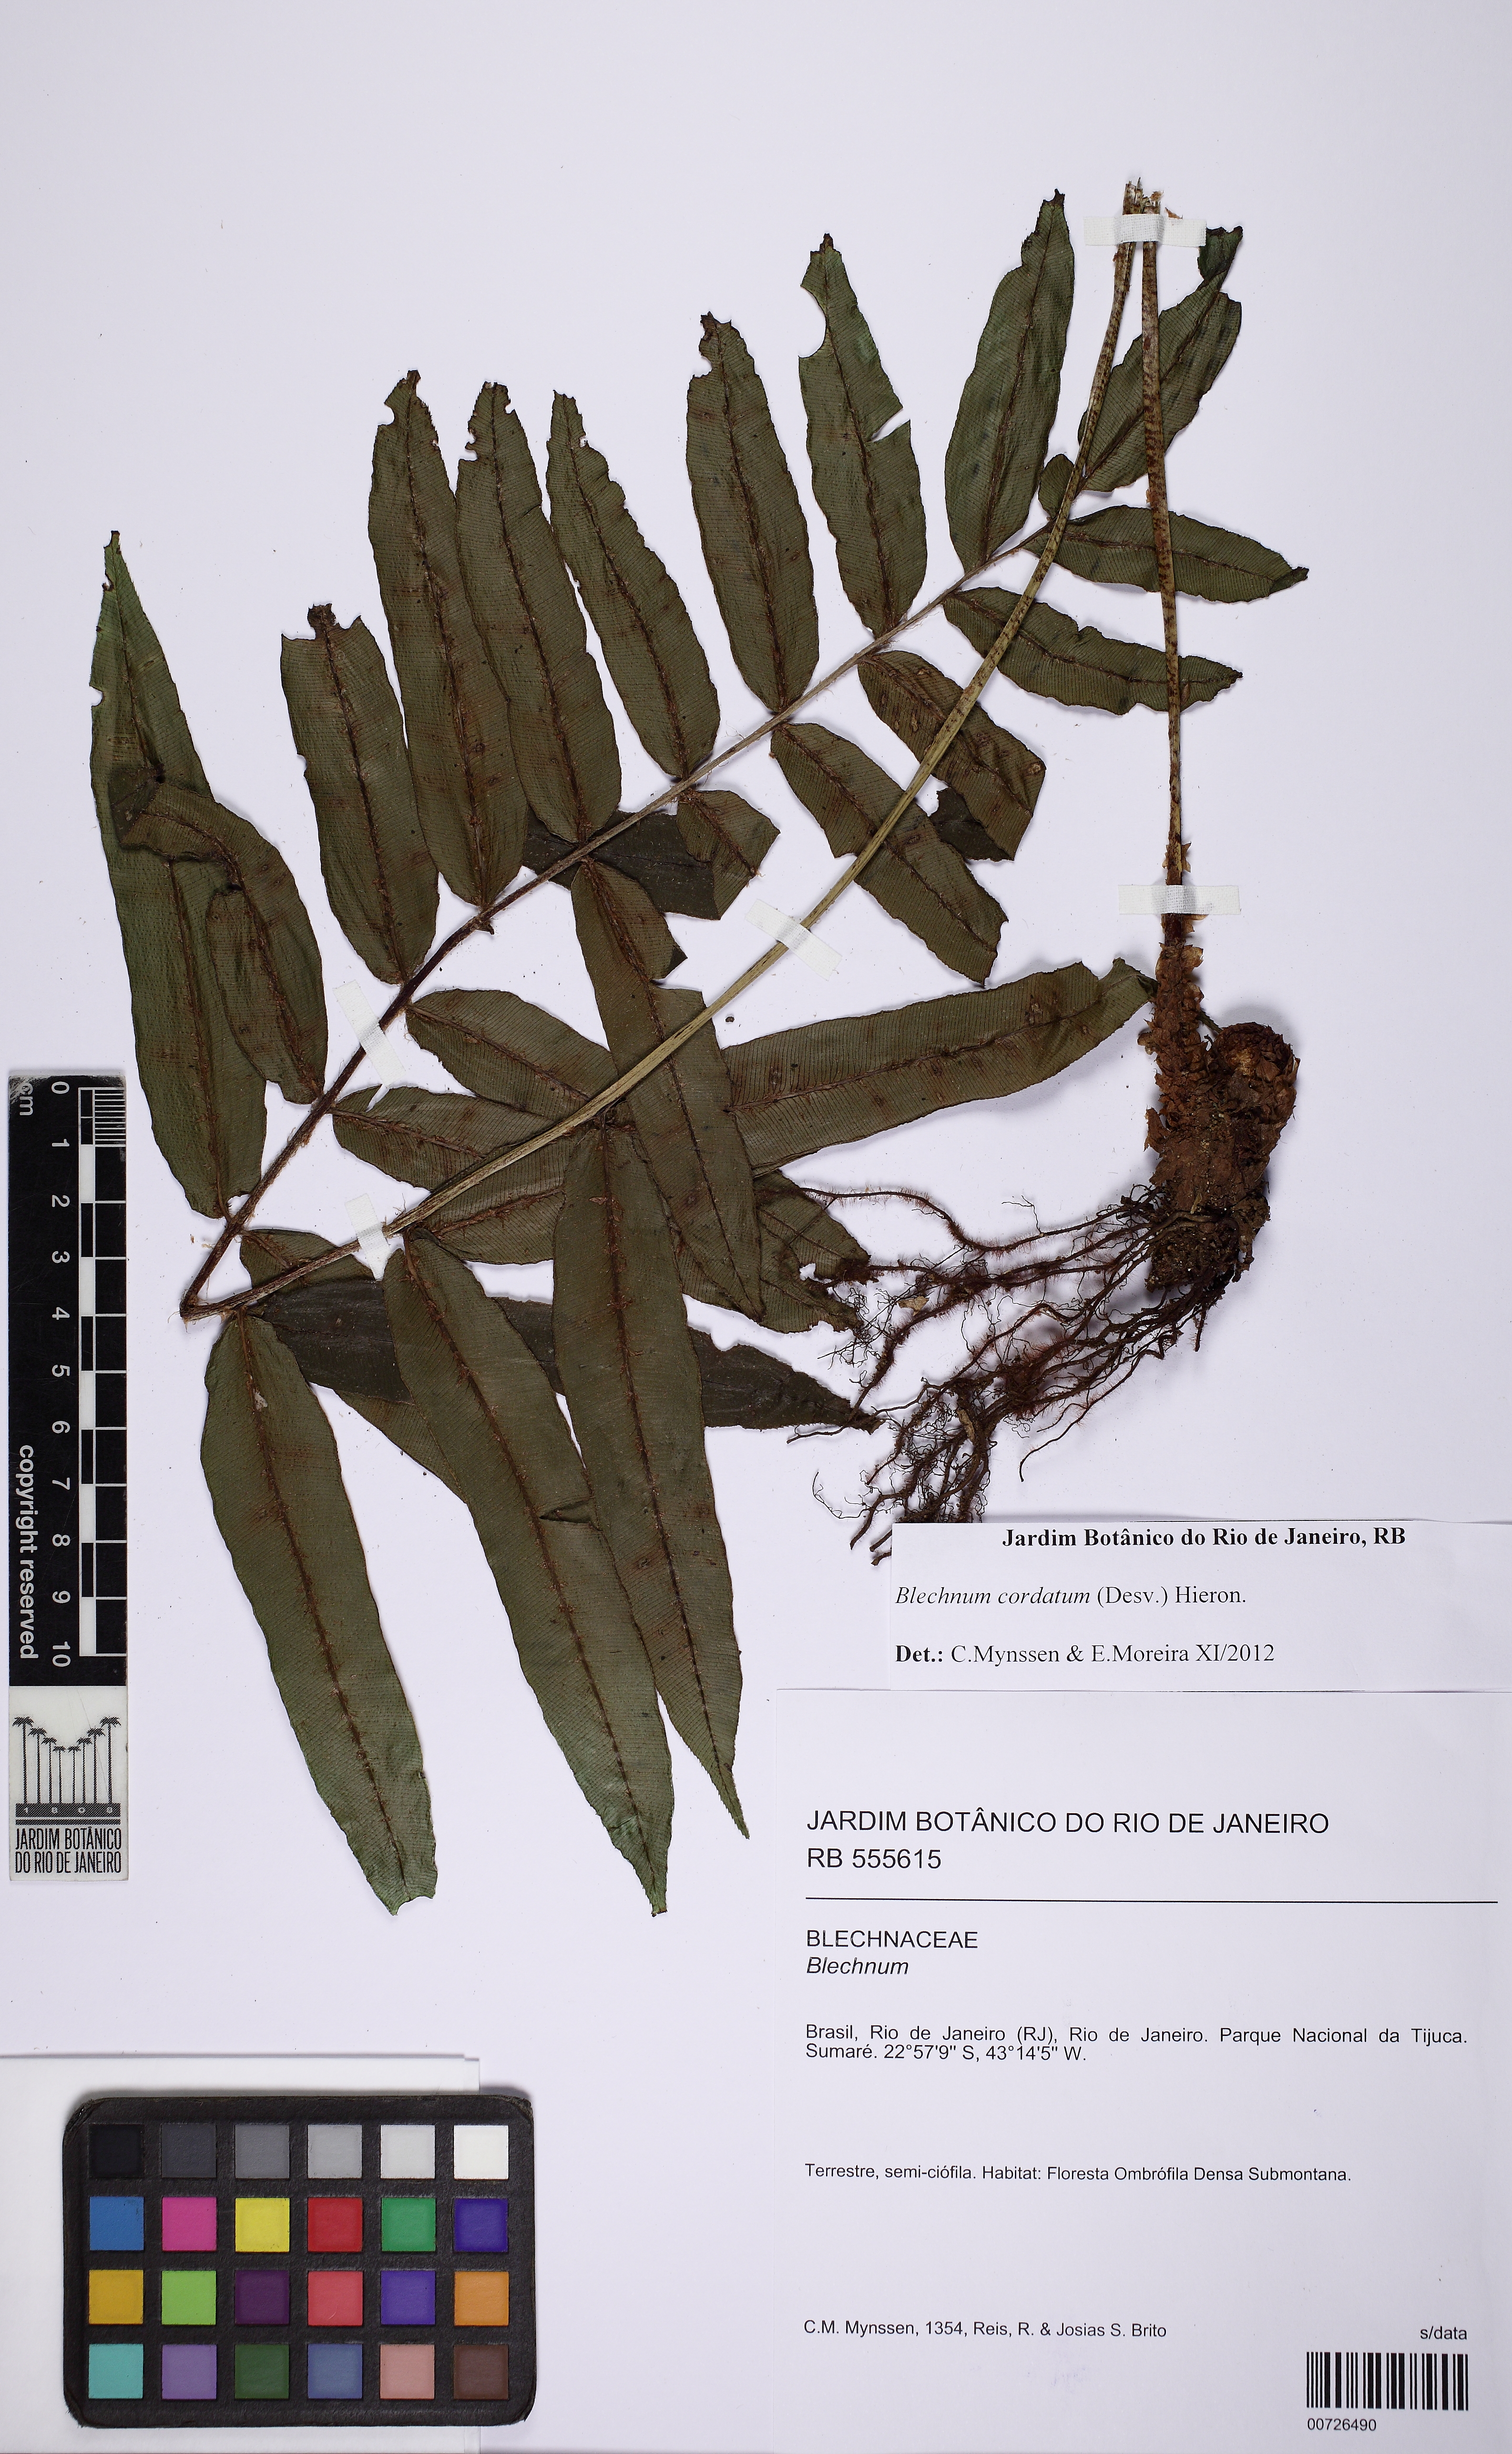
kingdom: Plantae
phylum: Tracheophyta
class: Polypodiopsida
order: Polypodiales
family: Blechnaceae
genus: Parablechnum
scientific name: Parablechnum cordatum
